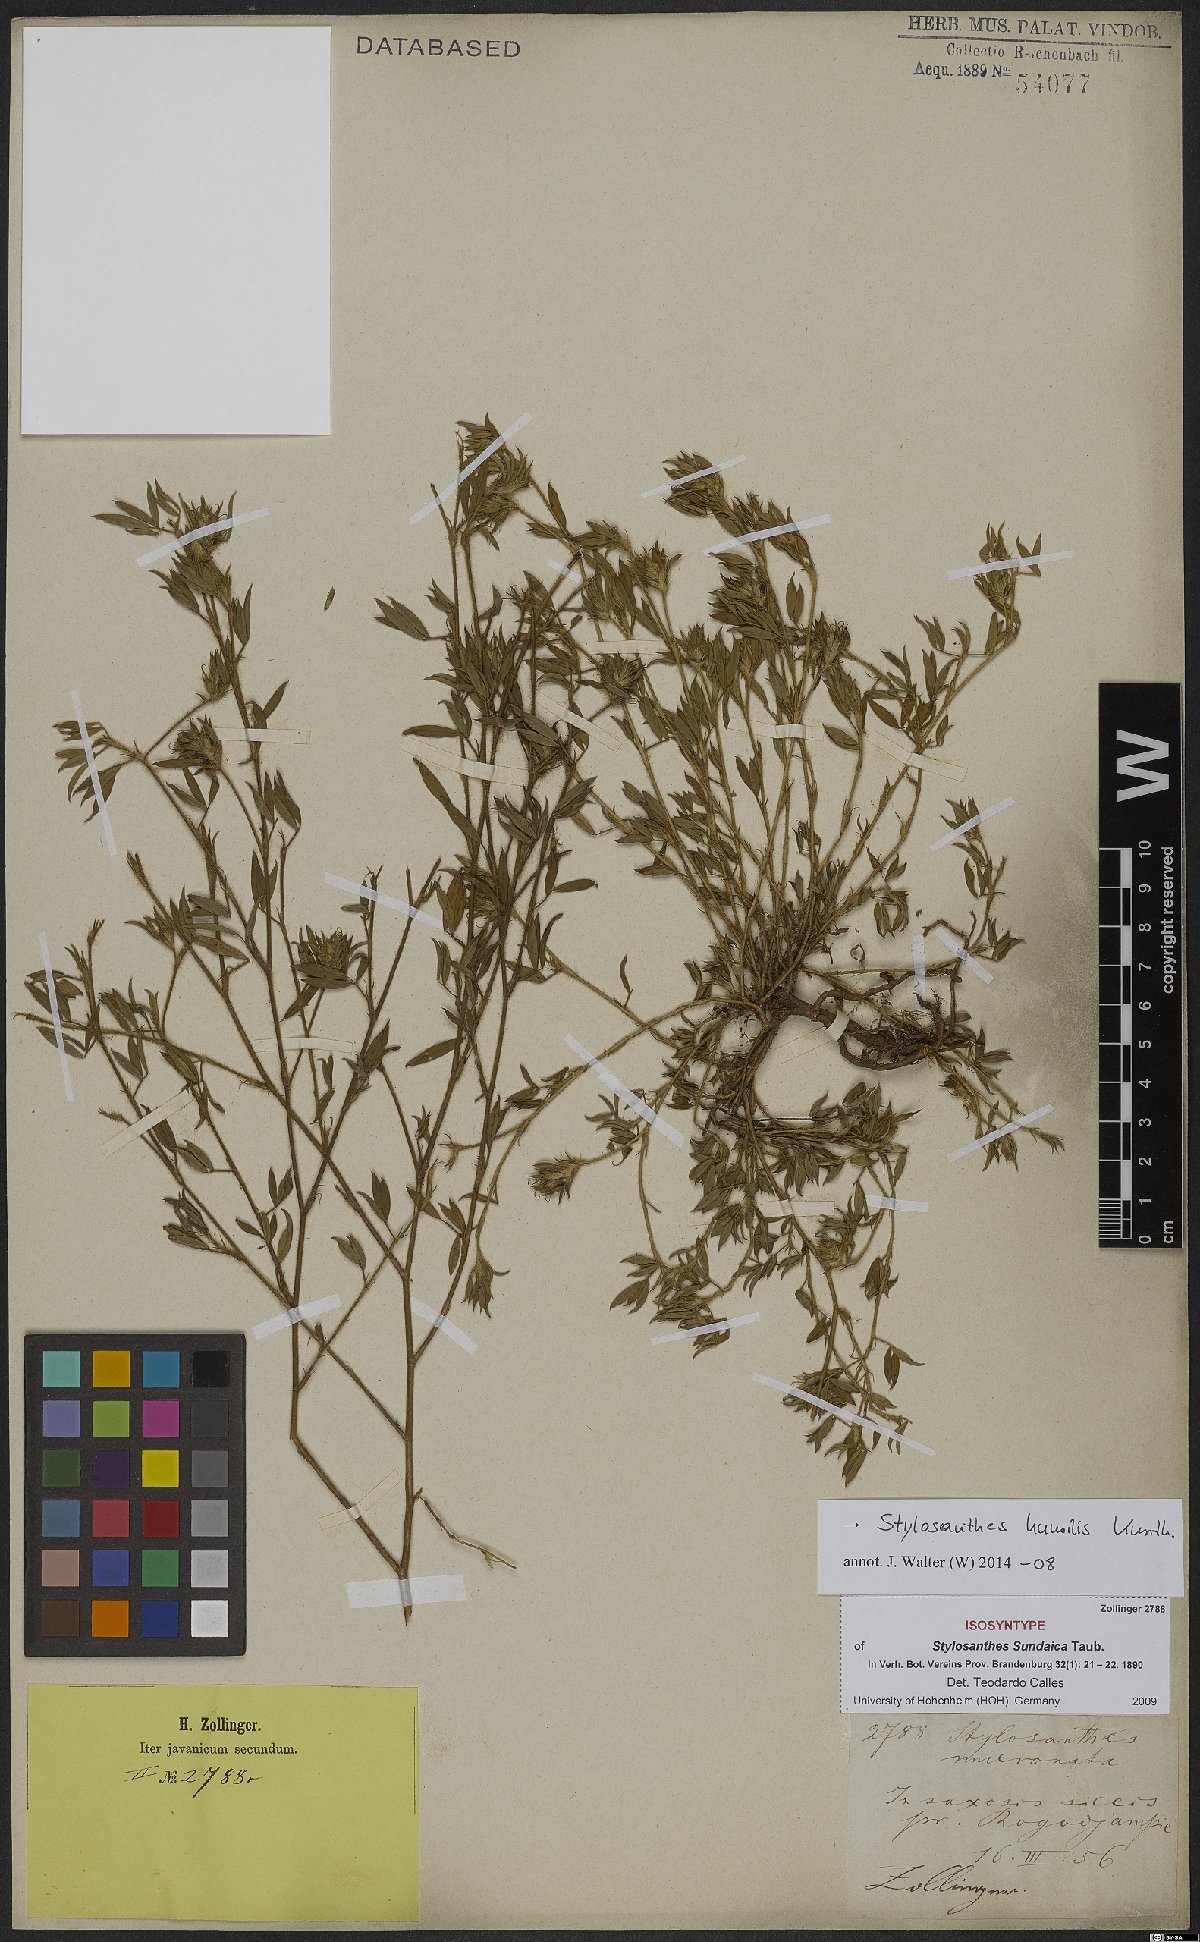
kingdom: Plantae
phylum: Tracheophyta
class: Magnoliopsida
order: Fabales
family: Fabaceae
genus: Stylosanthes
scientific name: Stylosanthes humilis
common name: Townsville stylo
